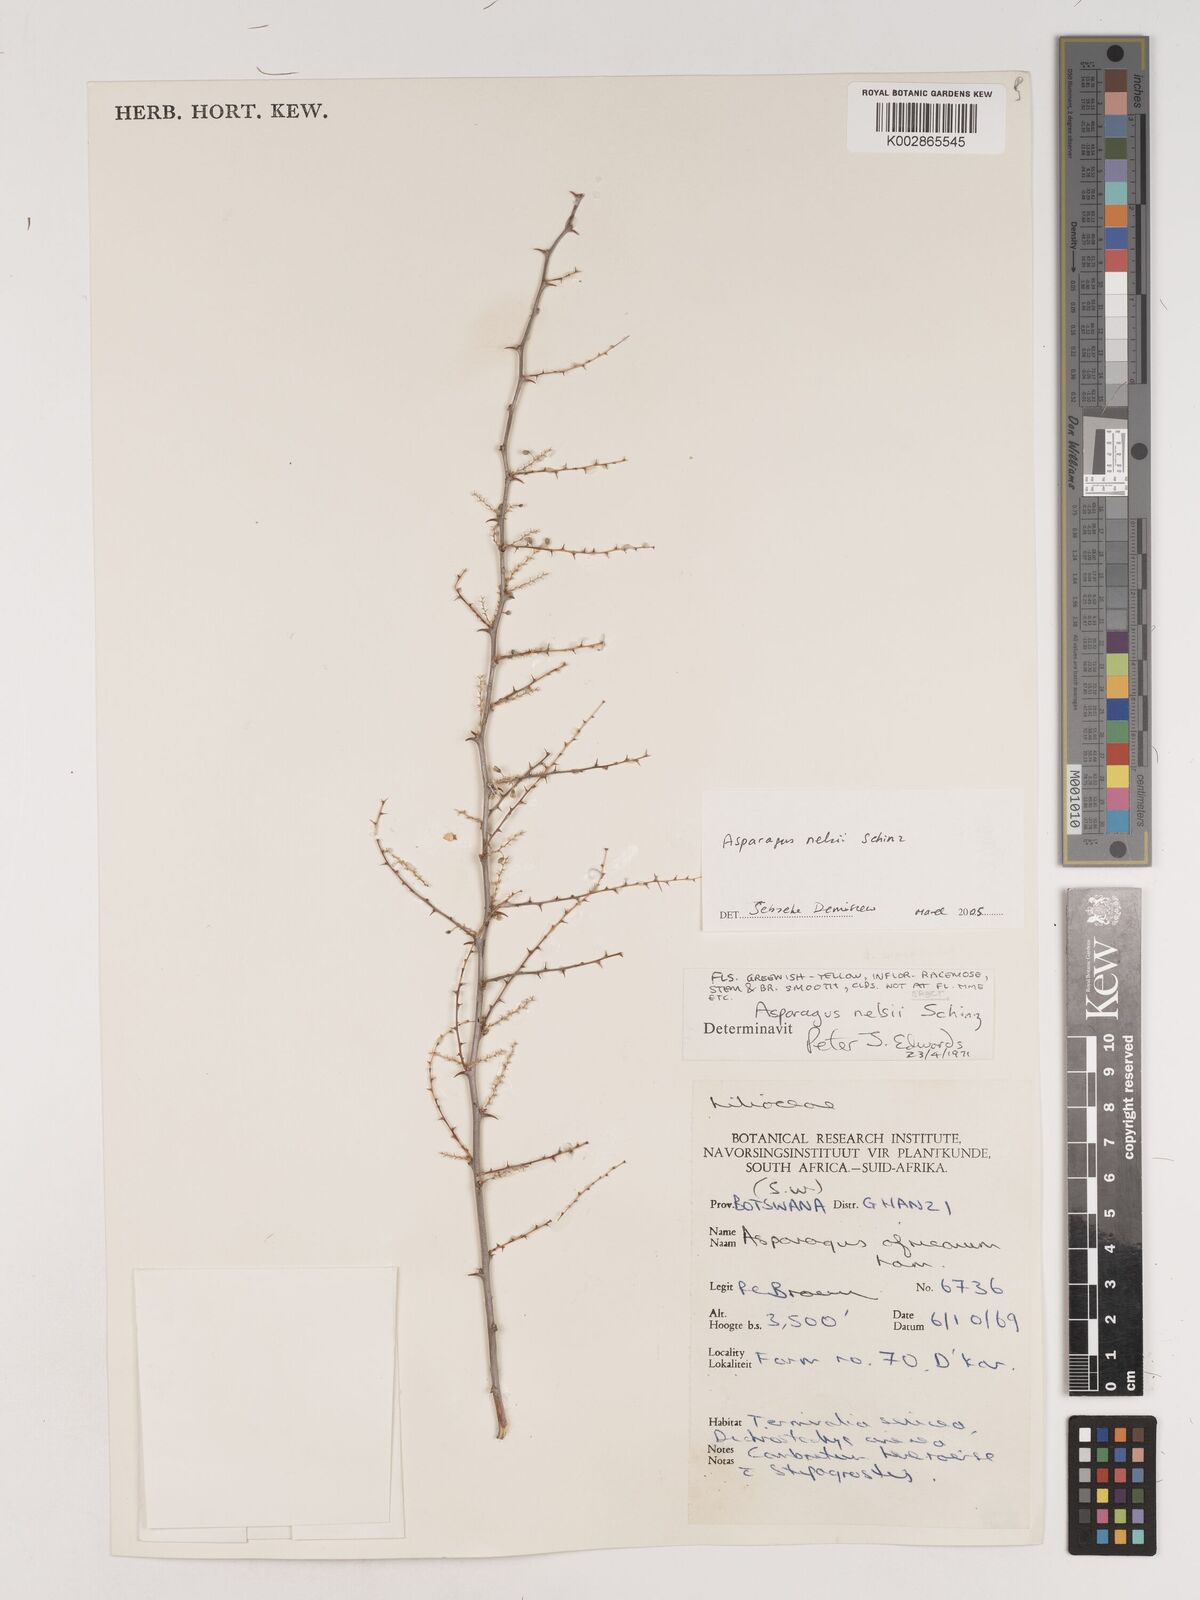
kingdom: Plantae
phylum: Tracheophyta
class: Liliopsida
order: Asparagales
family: Asparagaceae
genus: Asparagus
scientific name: Asparagus nelsii
